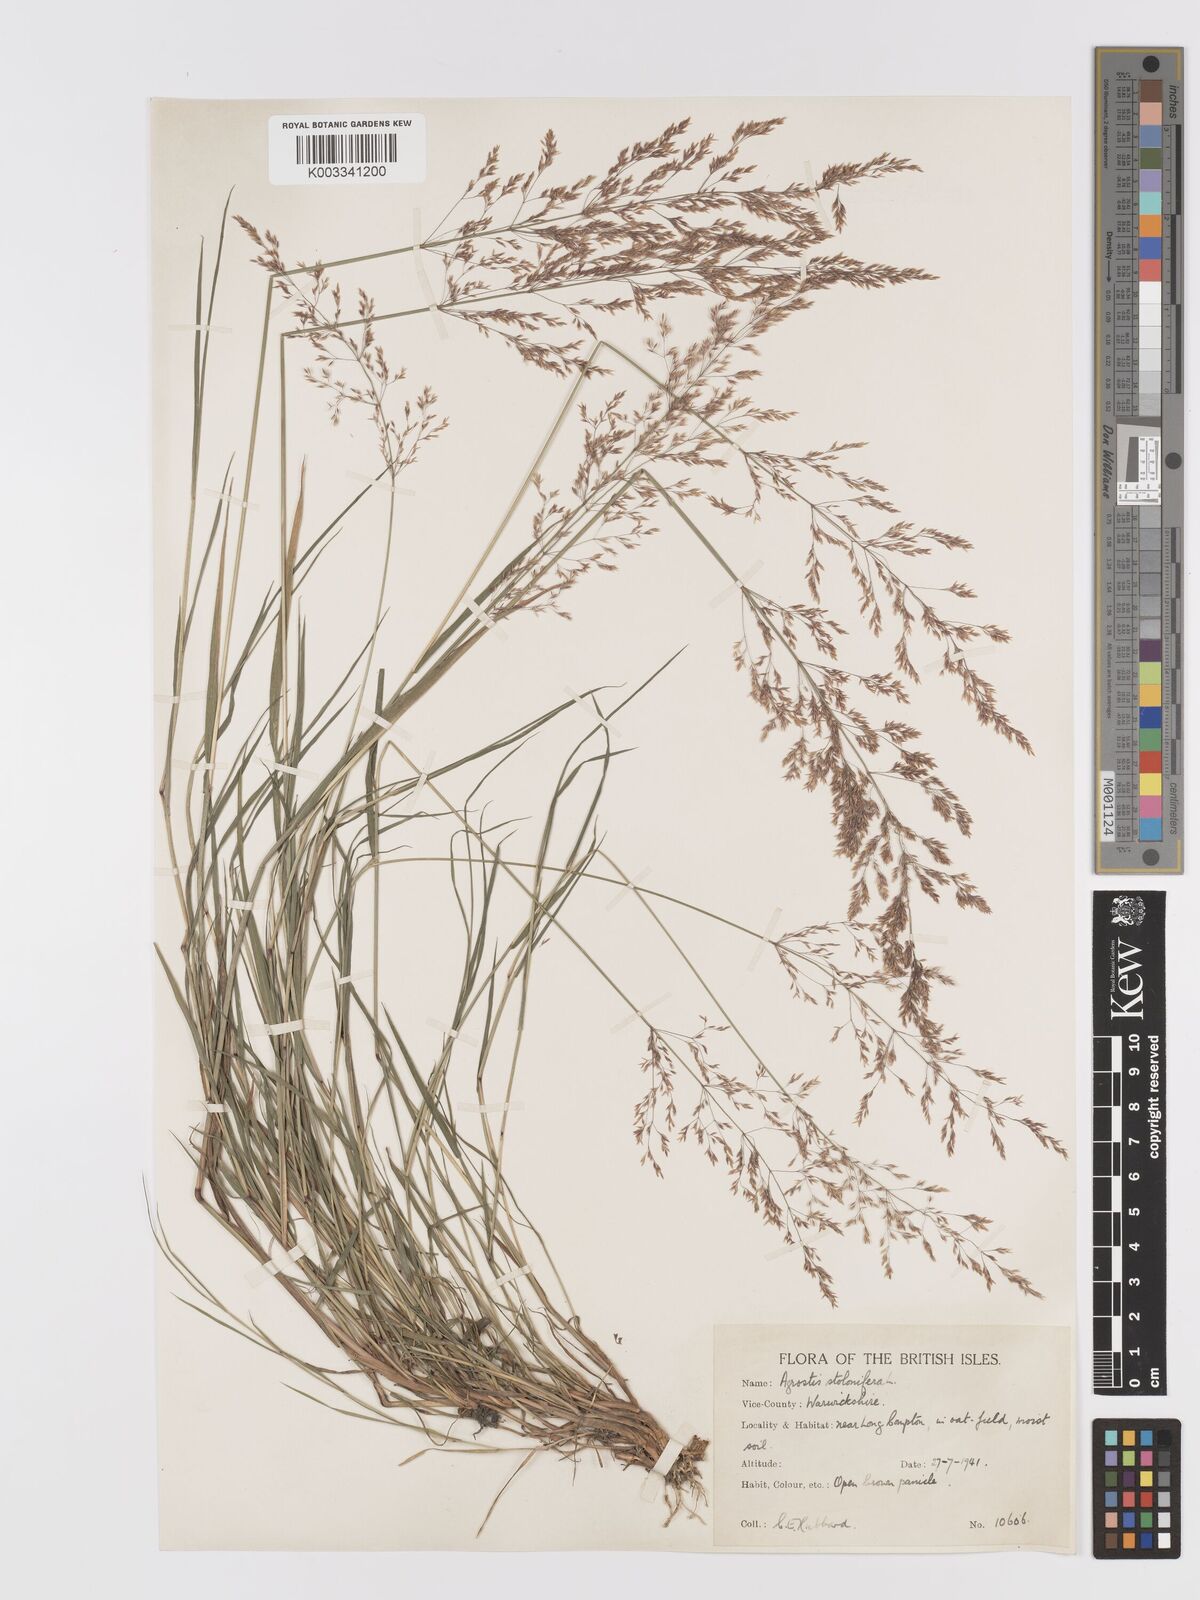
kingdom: Plantae
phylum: Tracheophyta
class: Liliopsida
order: Poales
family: Poaceae
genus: Agrostis
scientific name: Agrostis gigantea
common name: Black bent
